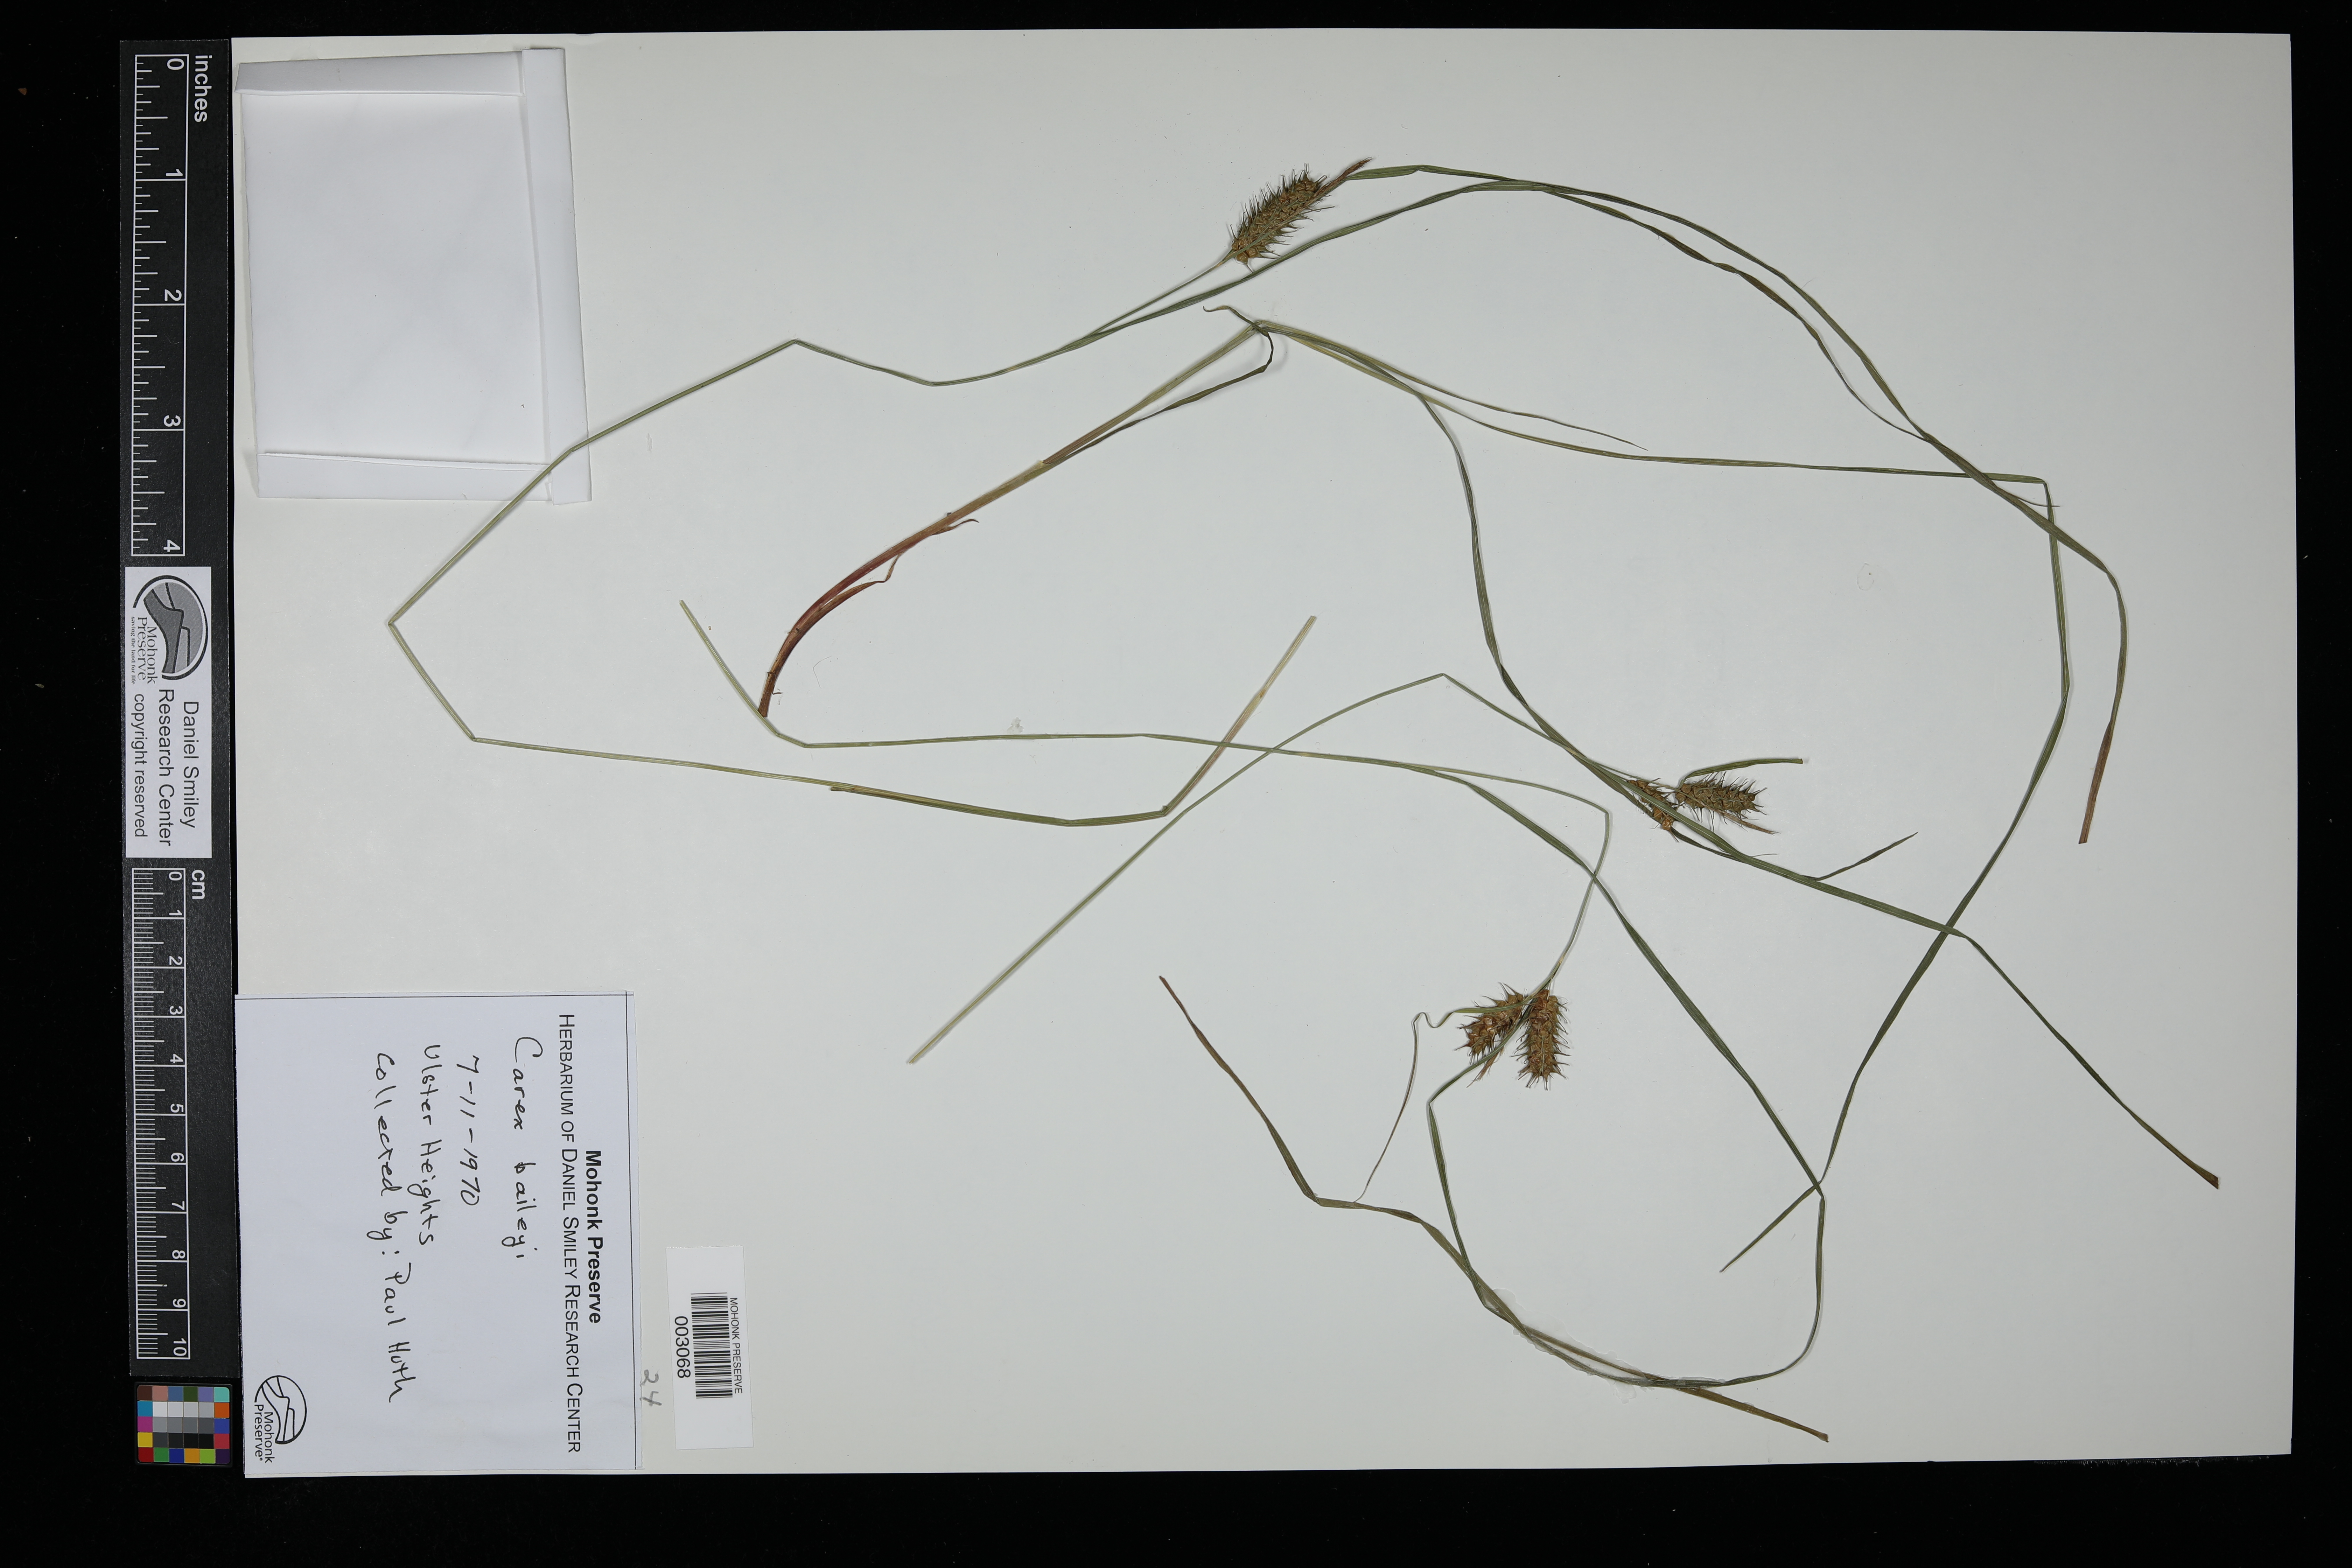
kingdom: Plantae
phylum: Tracheophyta
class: Liliopsida
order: Poales
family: Cyperaceae
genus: Carex
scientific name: Carex baileyi
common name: Bailey's sedge
